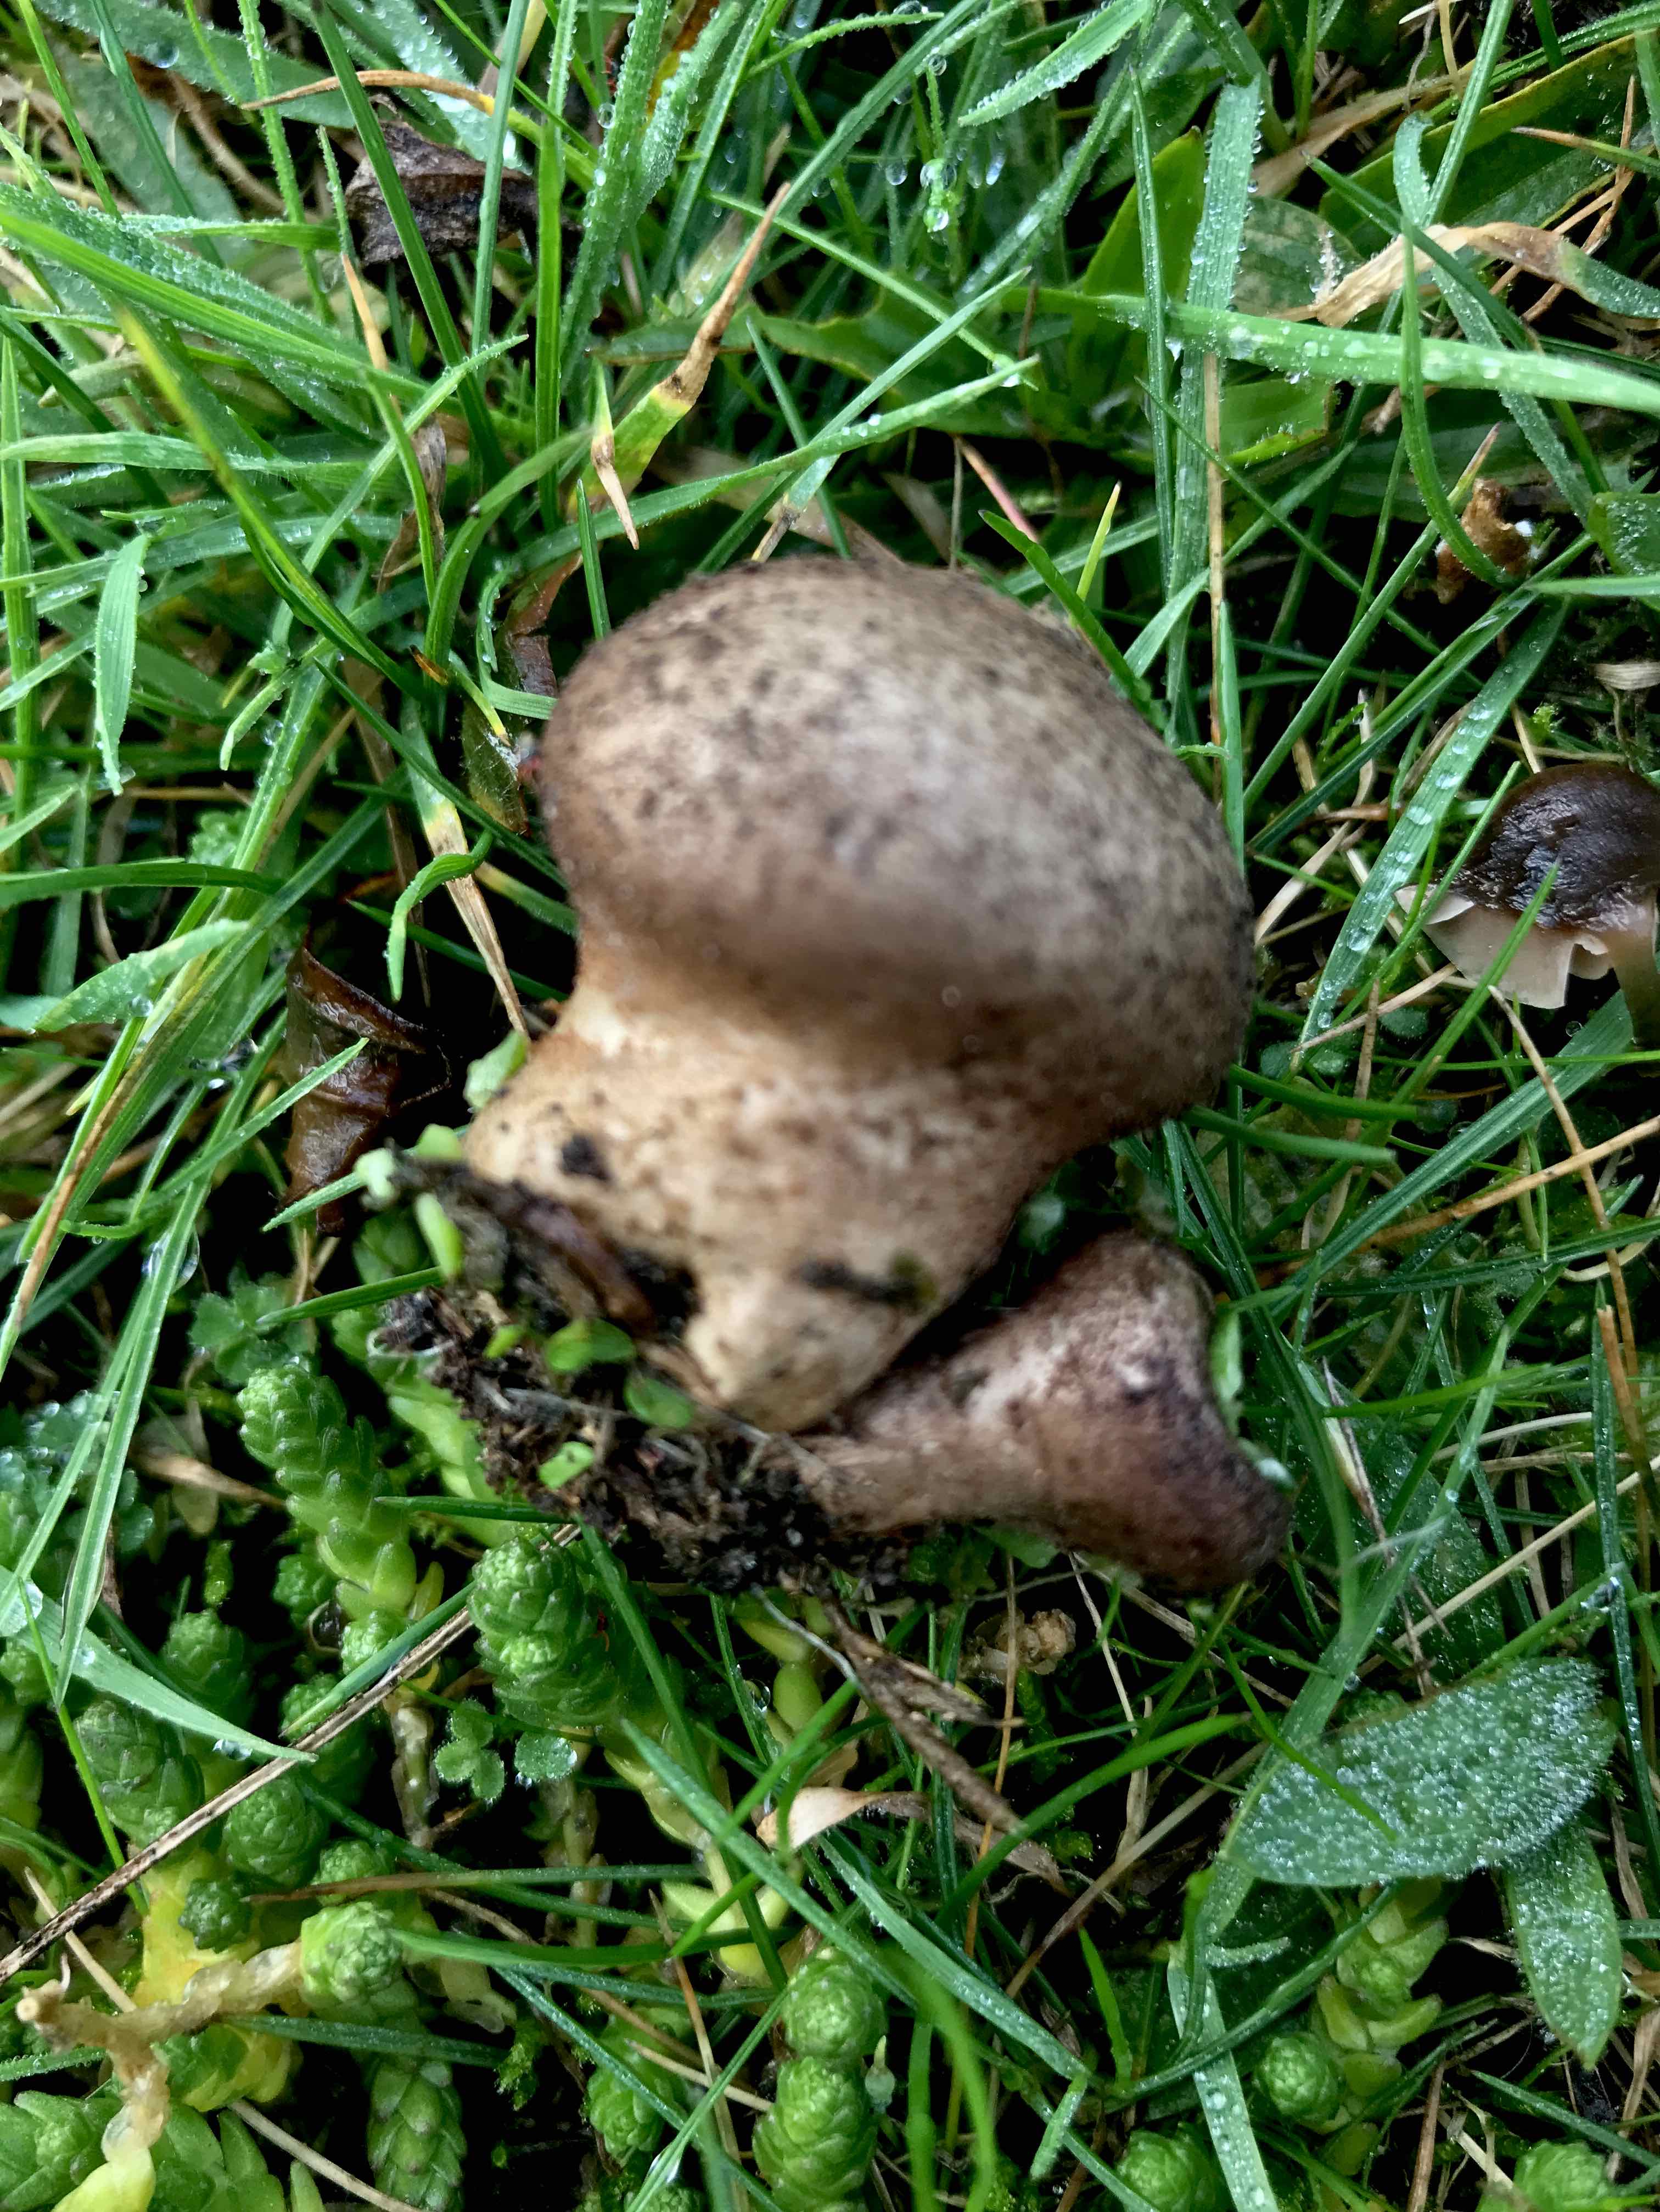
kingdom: Fungi
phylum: Basidiomycota
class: Agaricomycetes
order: Agaricales
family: Agaricaceae
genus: Lycoperdon
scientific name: Lycoperdon
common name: støvbold
